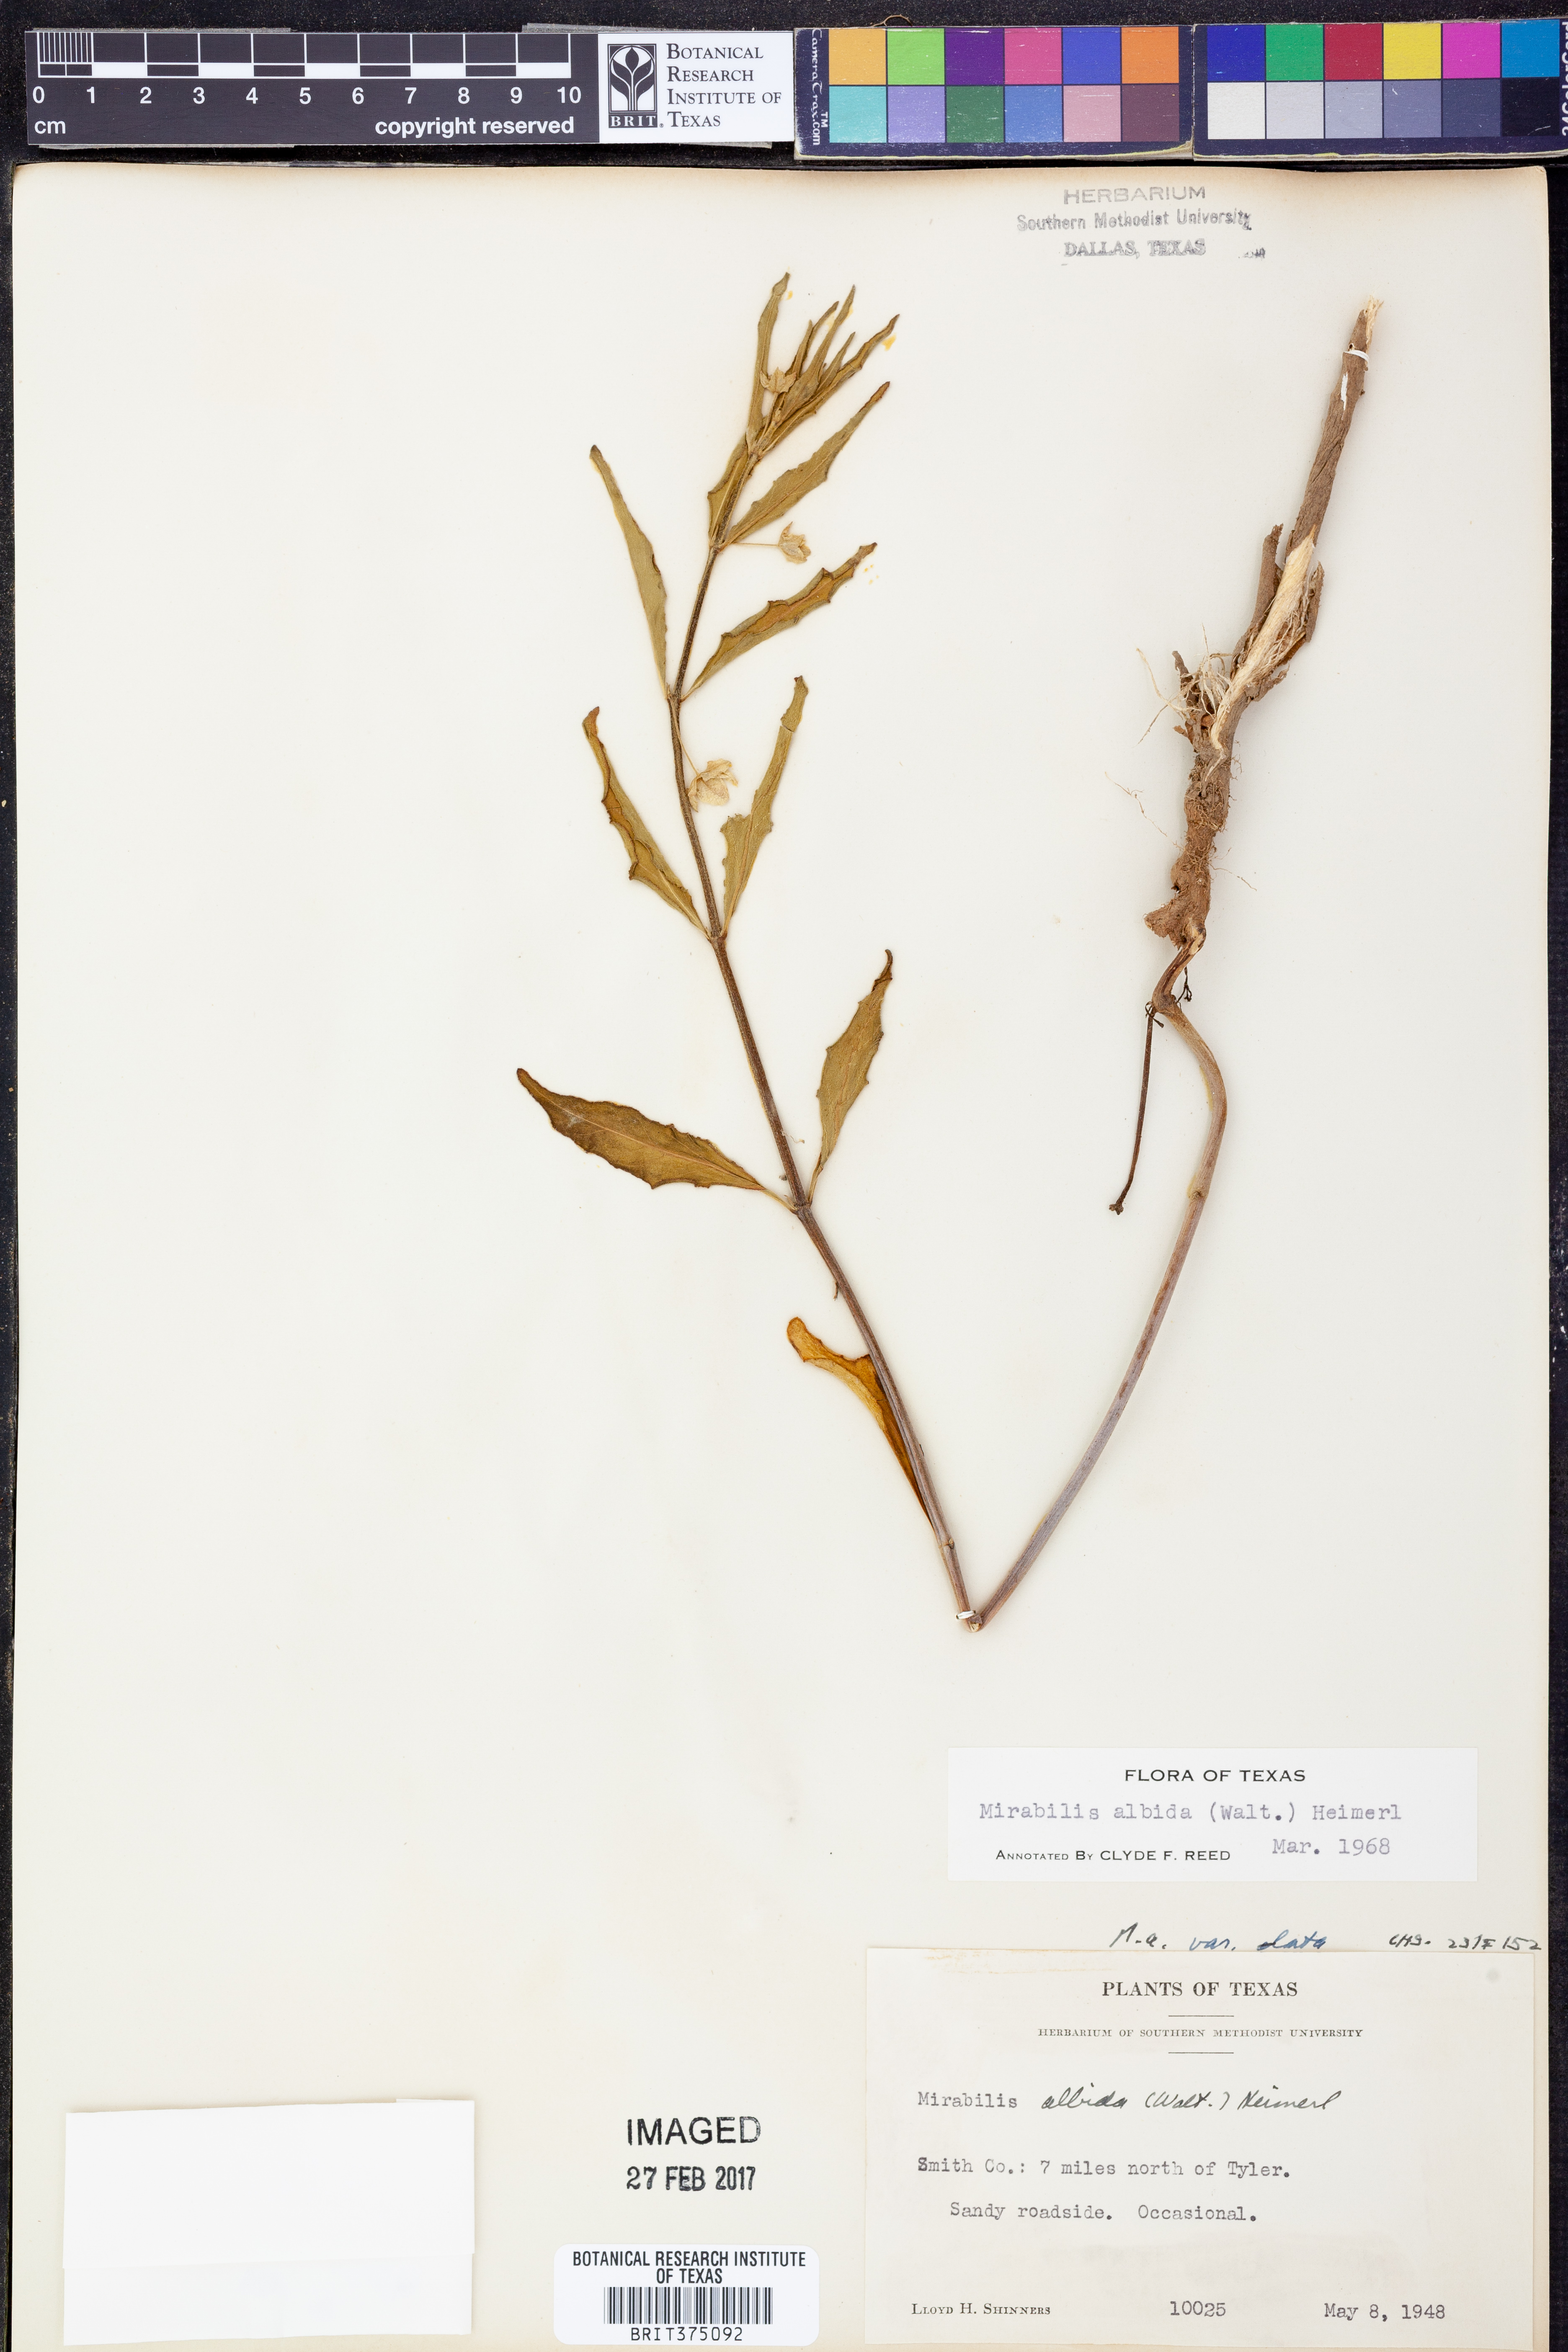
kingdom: Plantae
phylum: Tracheophyta
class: Magnoliopsida
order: Caryophyllales
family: Nyctaginaceae
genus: Mirabilis
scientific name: Mirabilis albida
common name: Hairy four-o'clock
